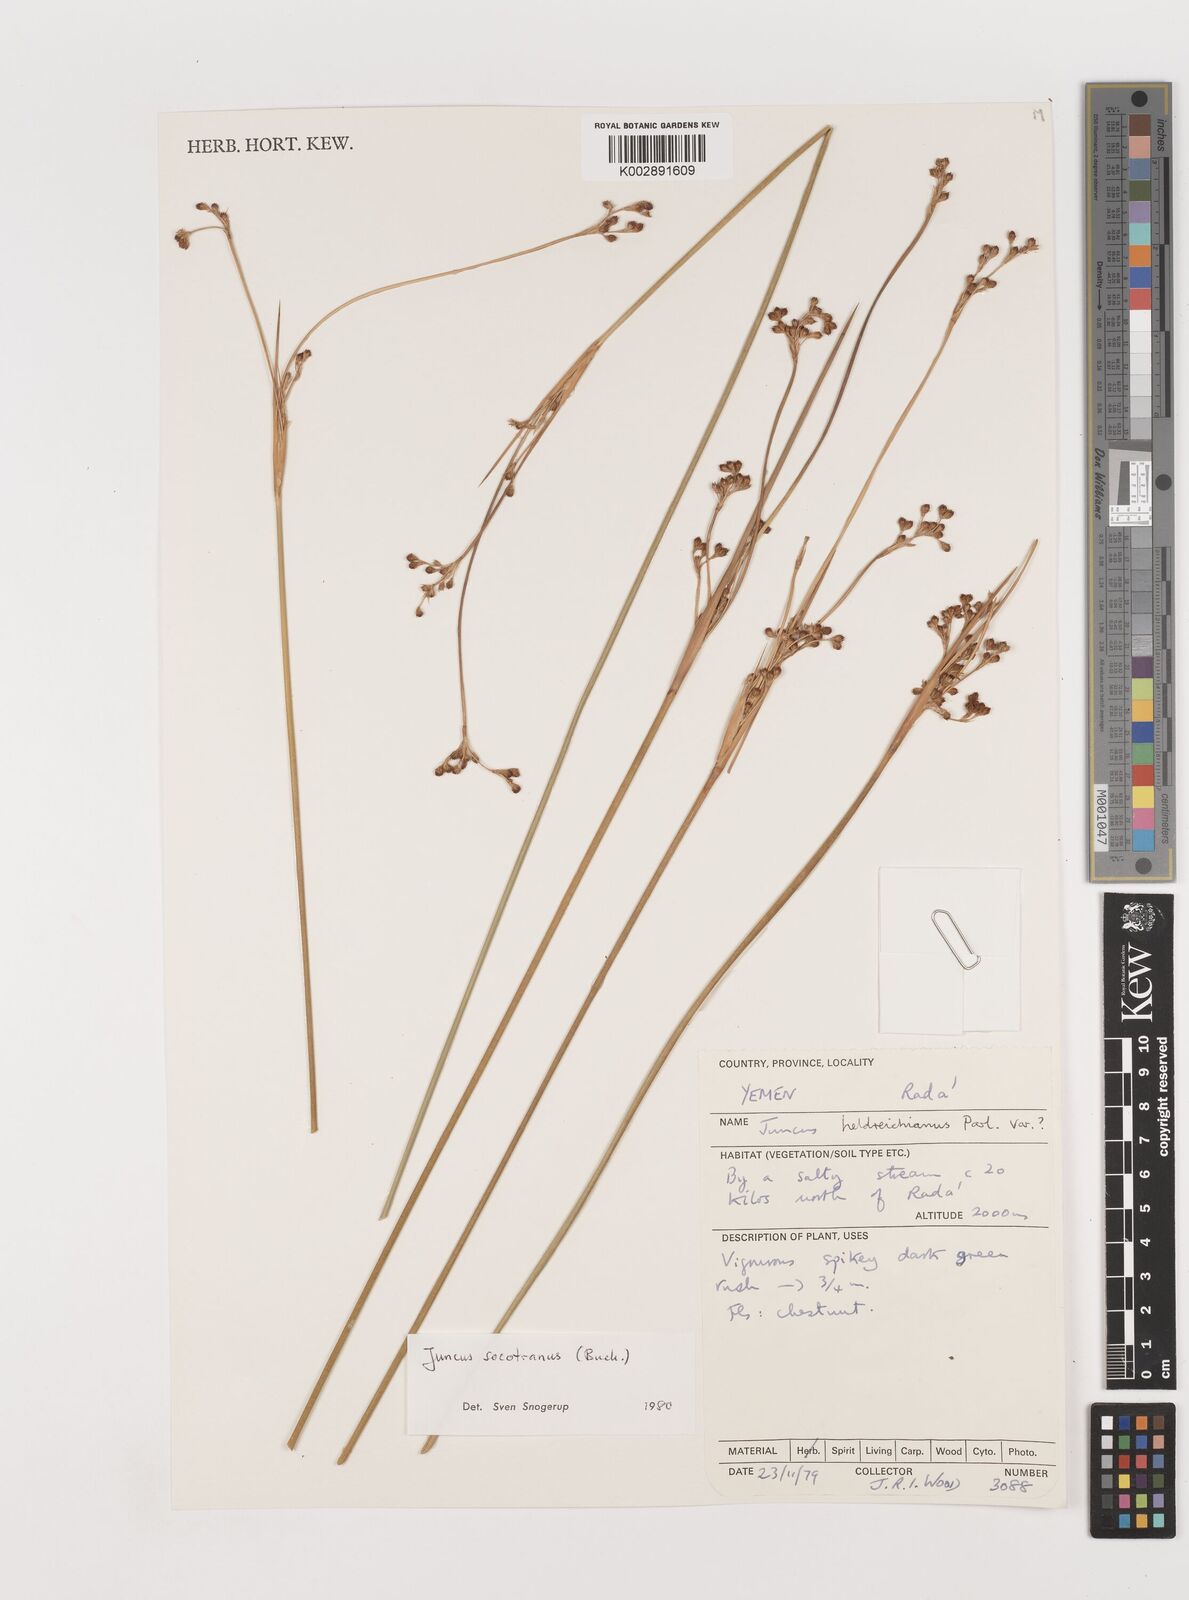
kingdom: Plantae
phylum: Tracheophyta
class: Liliopsida
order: Poales
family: Juncaceae
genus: Juncus
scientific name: Juncus socotranus
